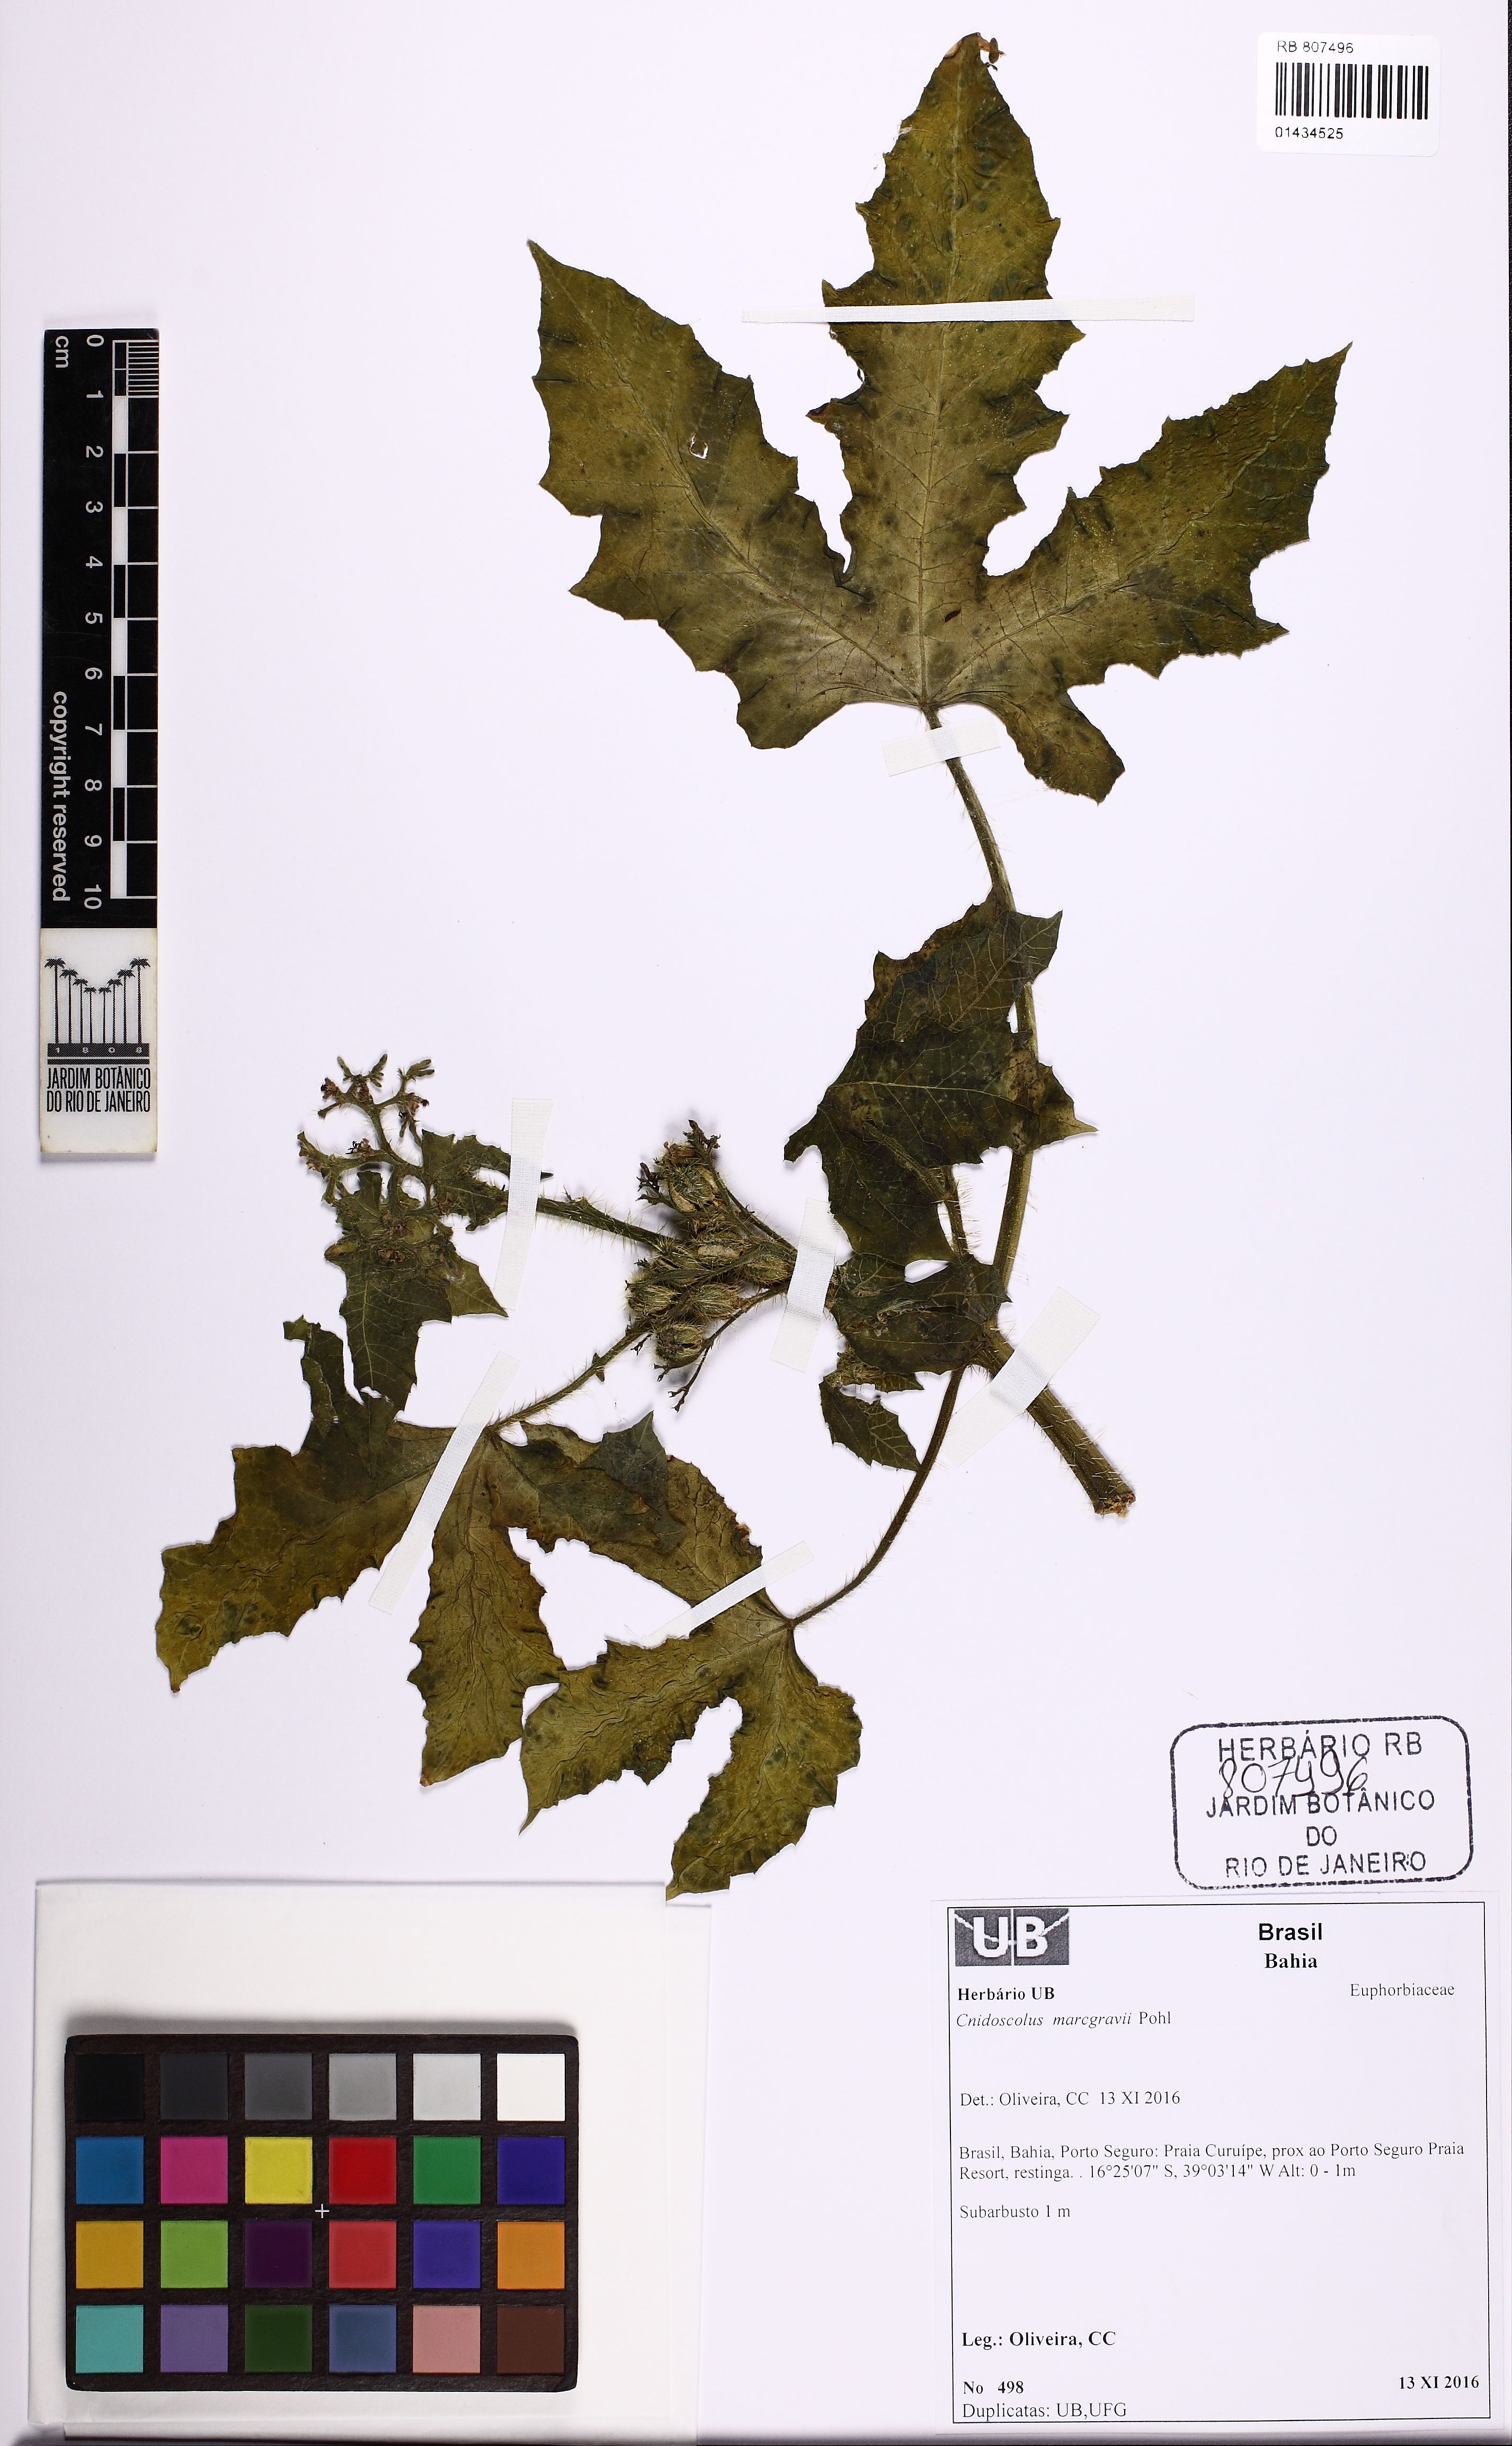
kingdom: Plantae
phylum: Tracheophyta
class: Magnoliopsida
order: Malpighiales
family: Euphorbiaceae
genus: Cnidoscolus
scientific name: Cnidoscolus urens
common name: Bull-nettle
